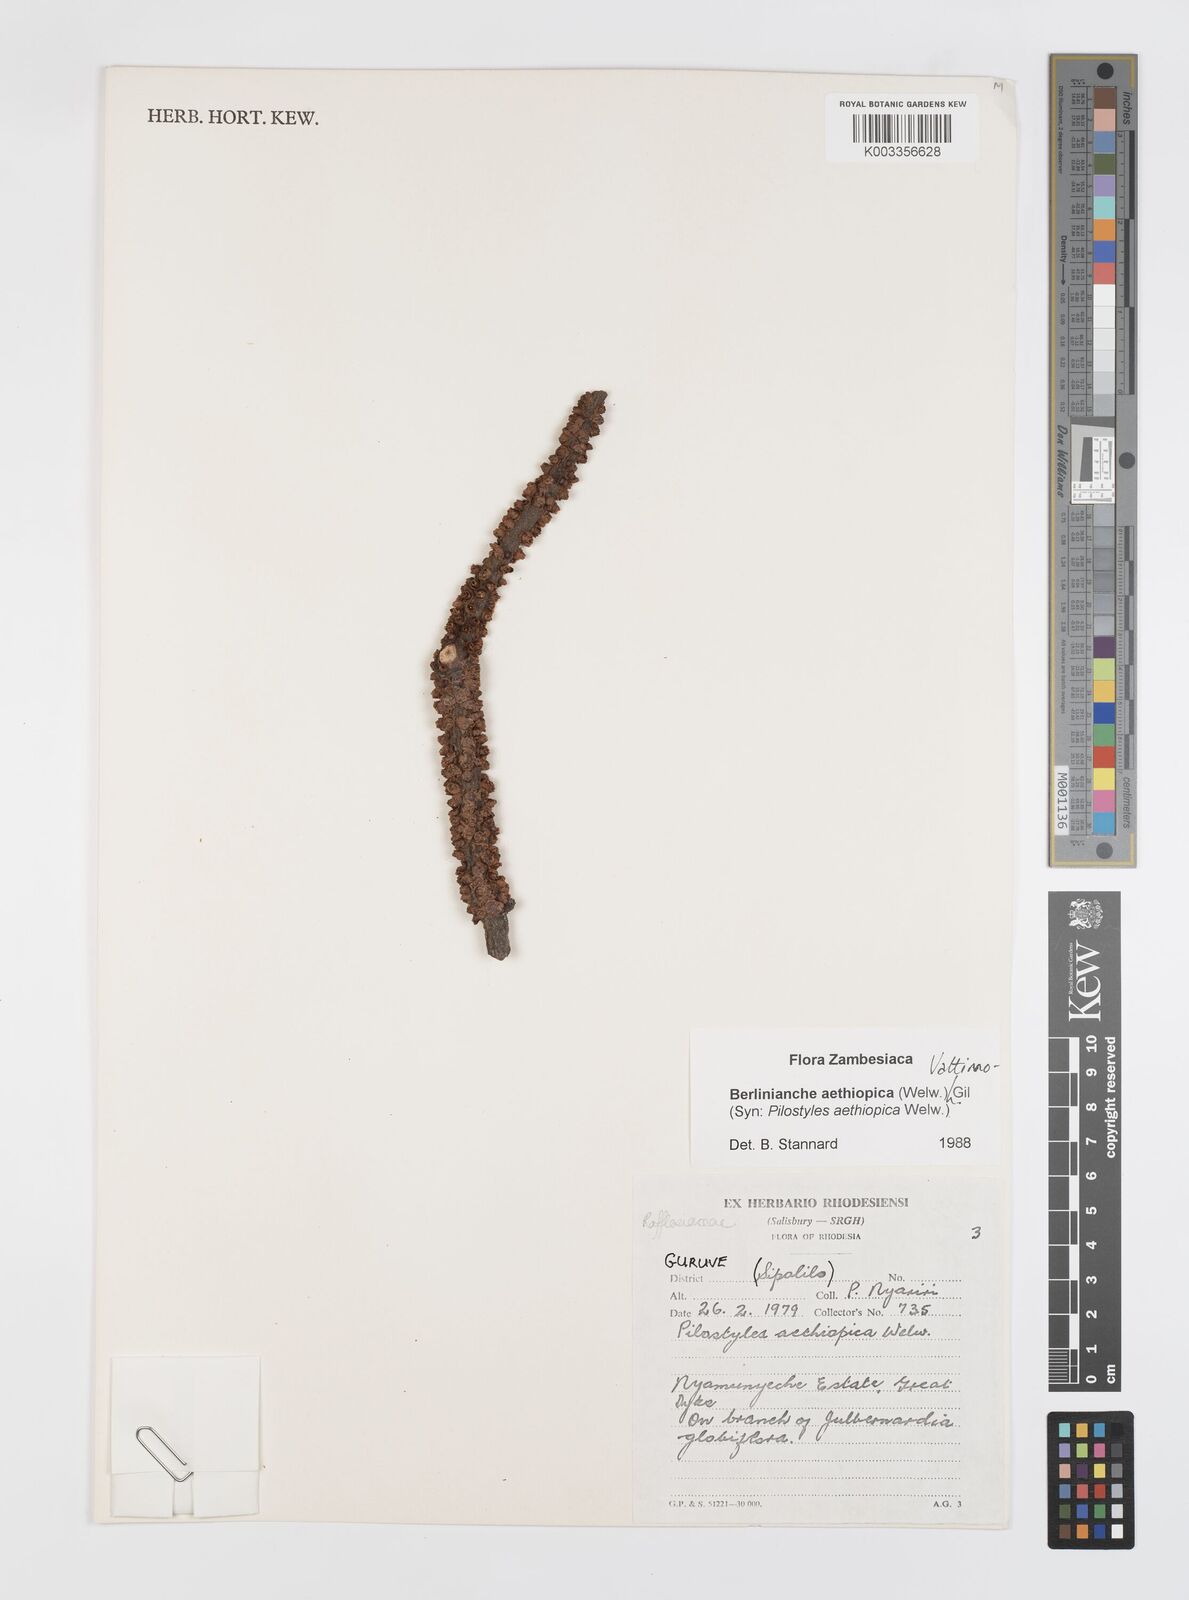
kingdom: Plantae
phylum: Tracheophyta
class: Magnoliopsida
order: Cucurbitales
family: Apodanthaceae
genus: Pilostyles
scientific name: Pilostyles aethiopica
